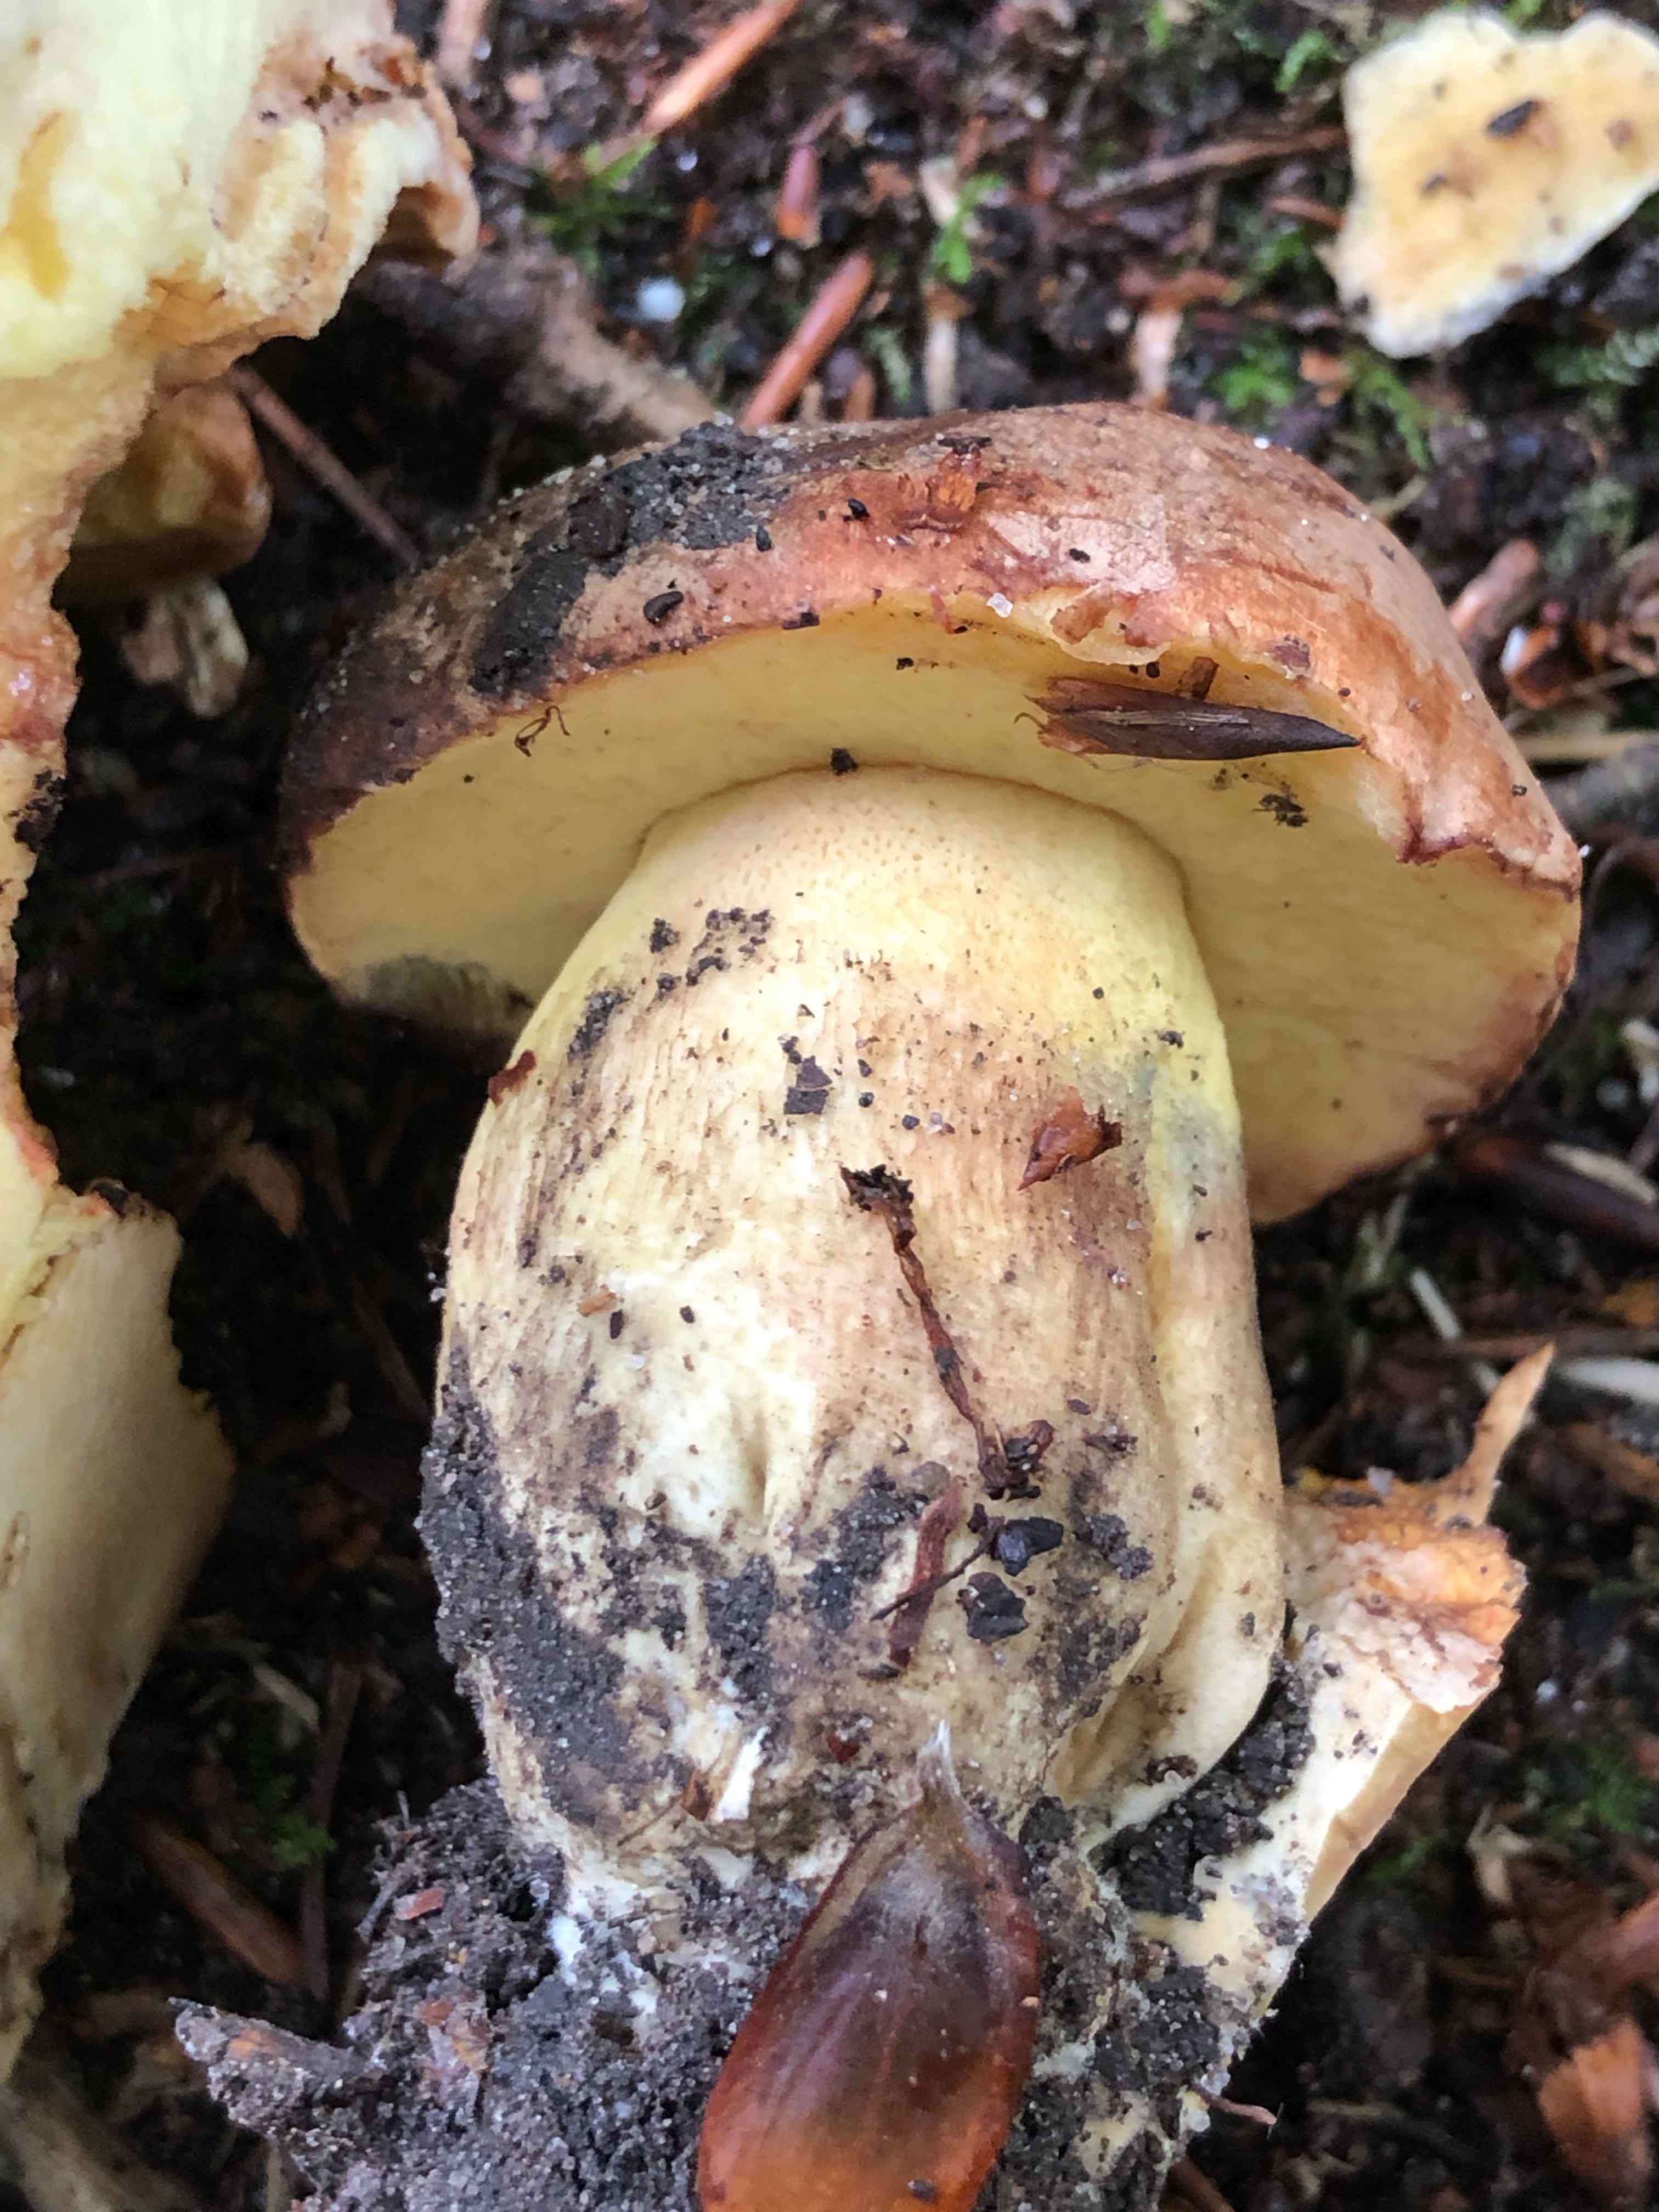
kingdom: Fungi
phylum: Basidiomycota
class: Agaricomycetes
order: Boletales
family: Boletaceae
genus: Butyriboletus
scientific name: Butyriboletus appendiculatus
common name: tenstokket rørhat
